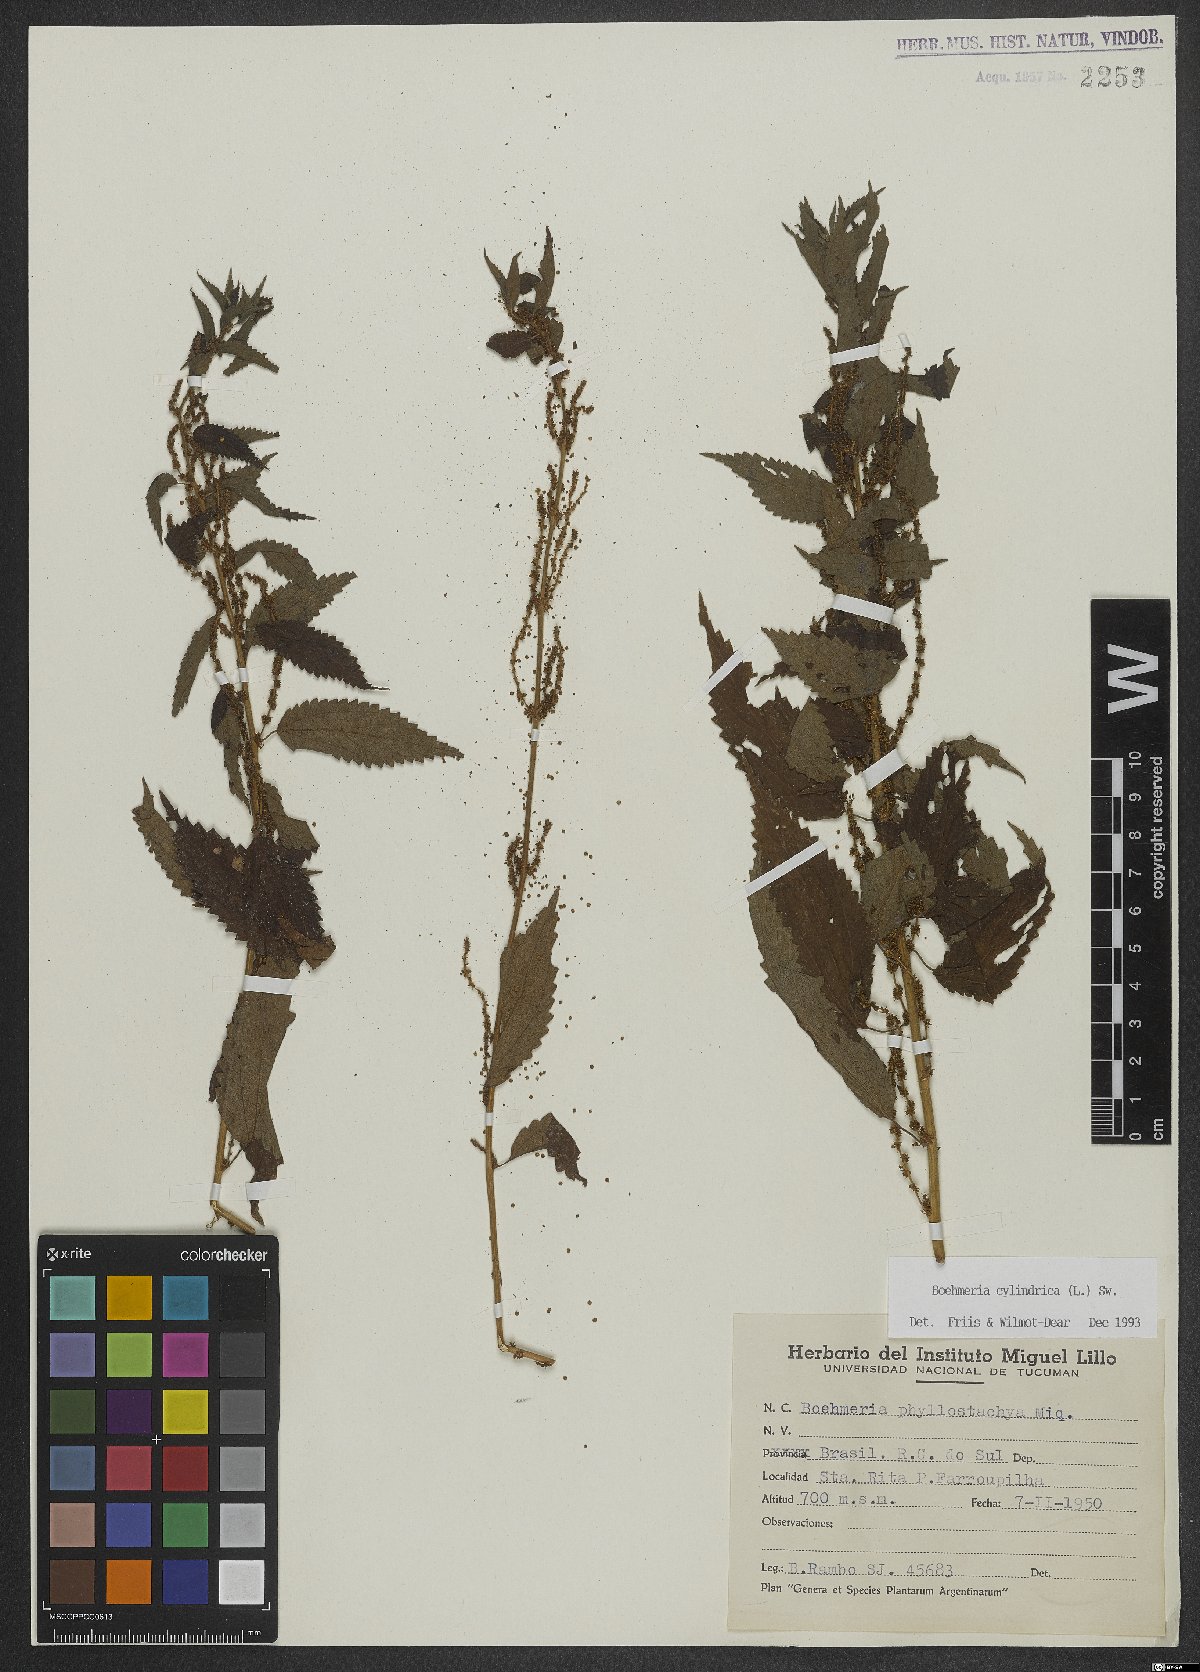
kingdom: Plantae
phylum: Tracheophyta
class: Magnoliopsida
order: Rosales
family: Urticaceae
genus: Boehmeria
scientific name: Boehmeria cylindrica
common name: Bog-hemp
